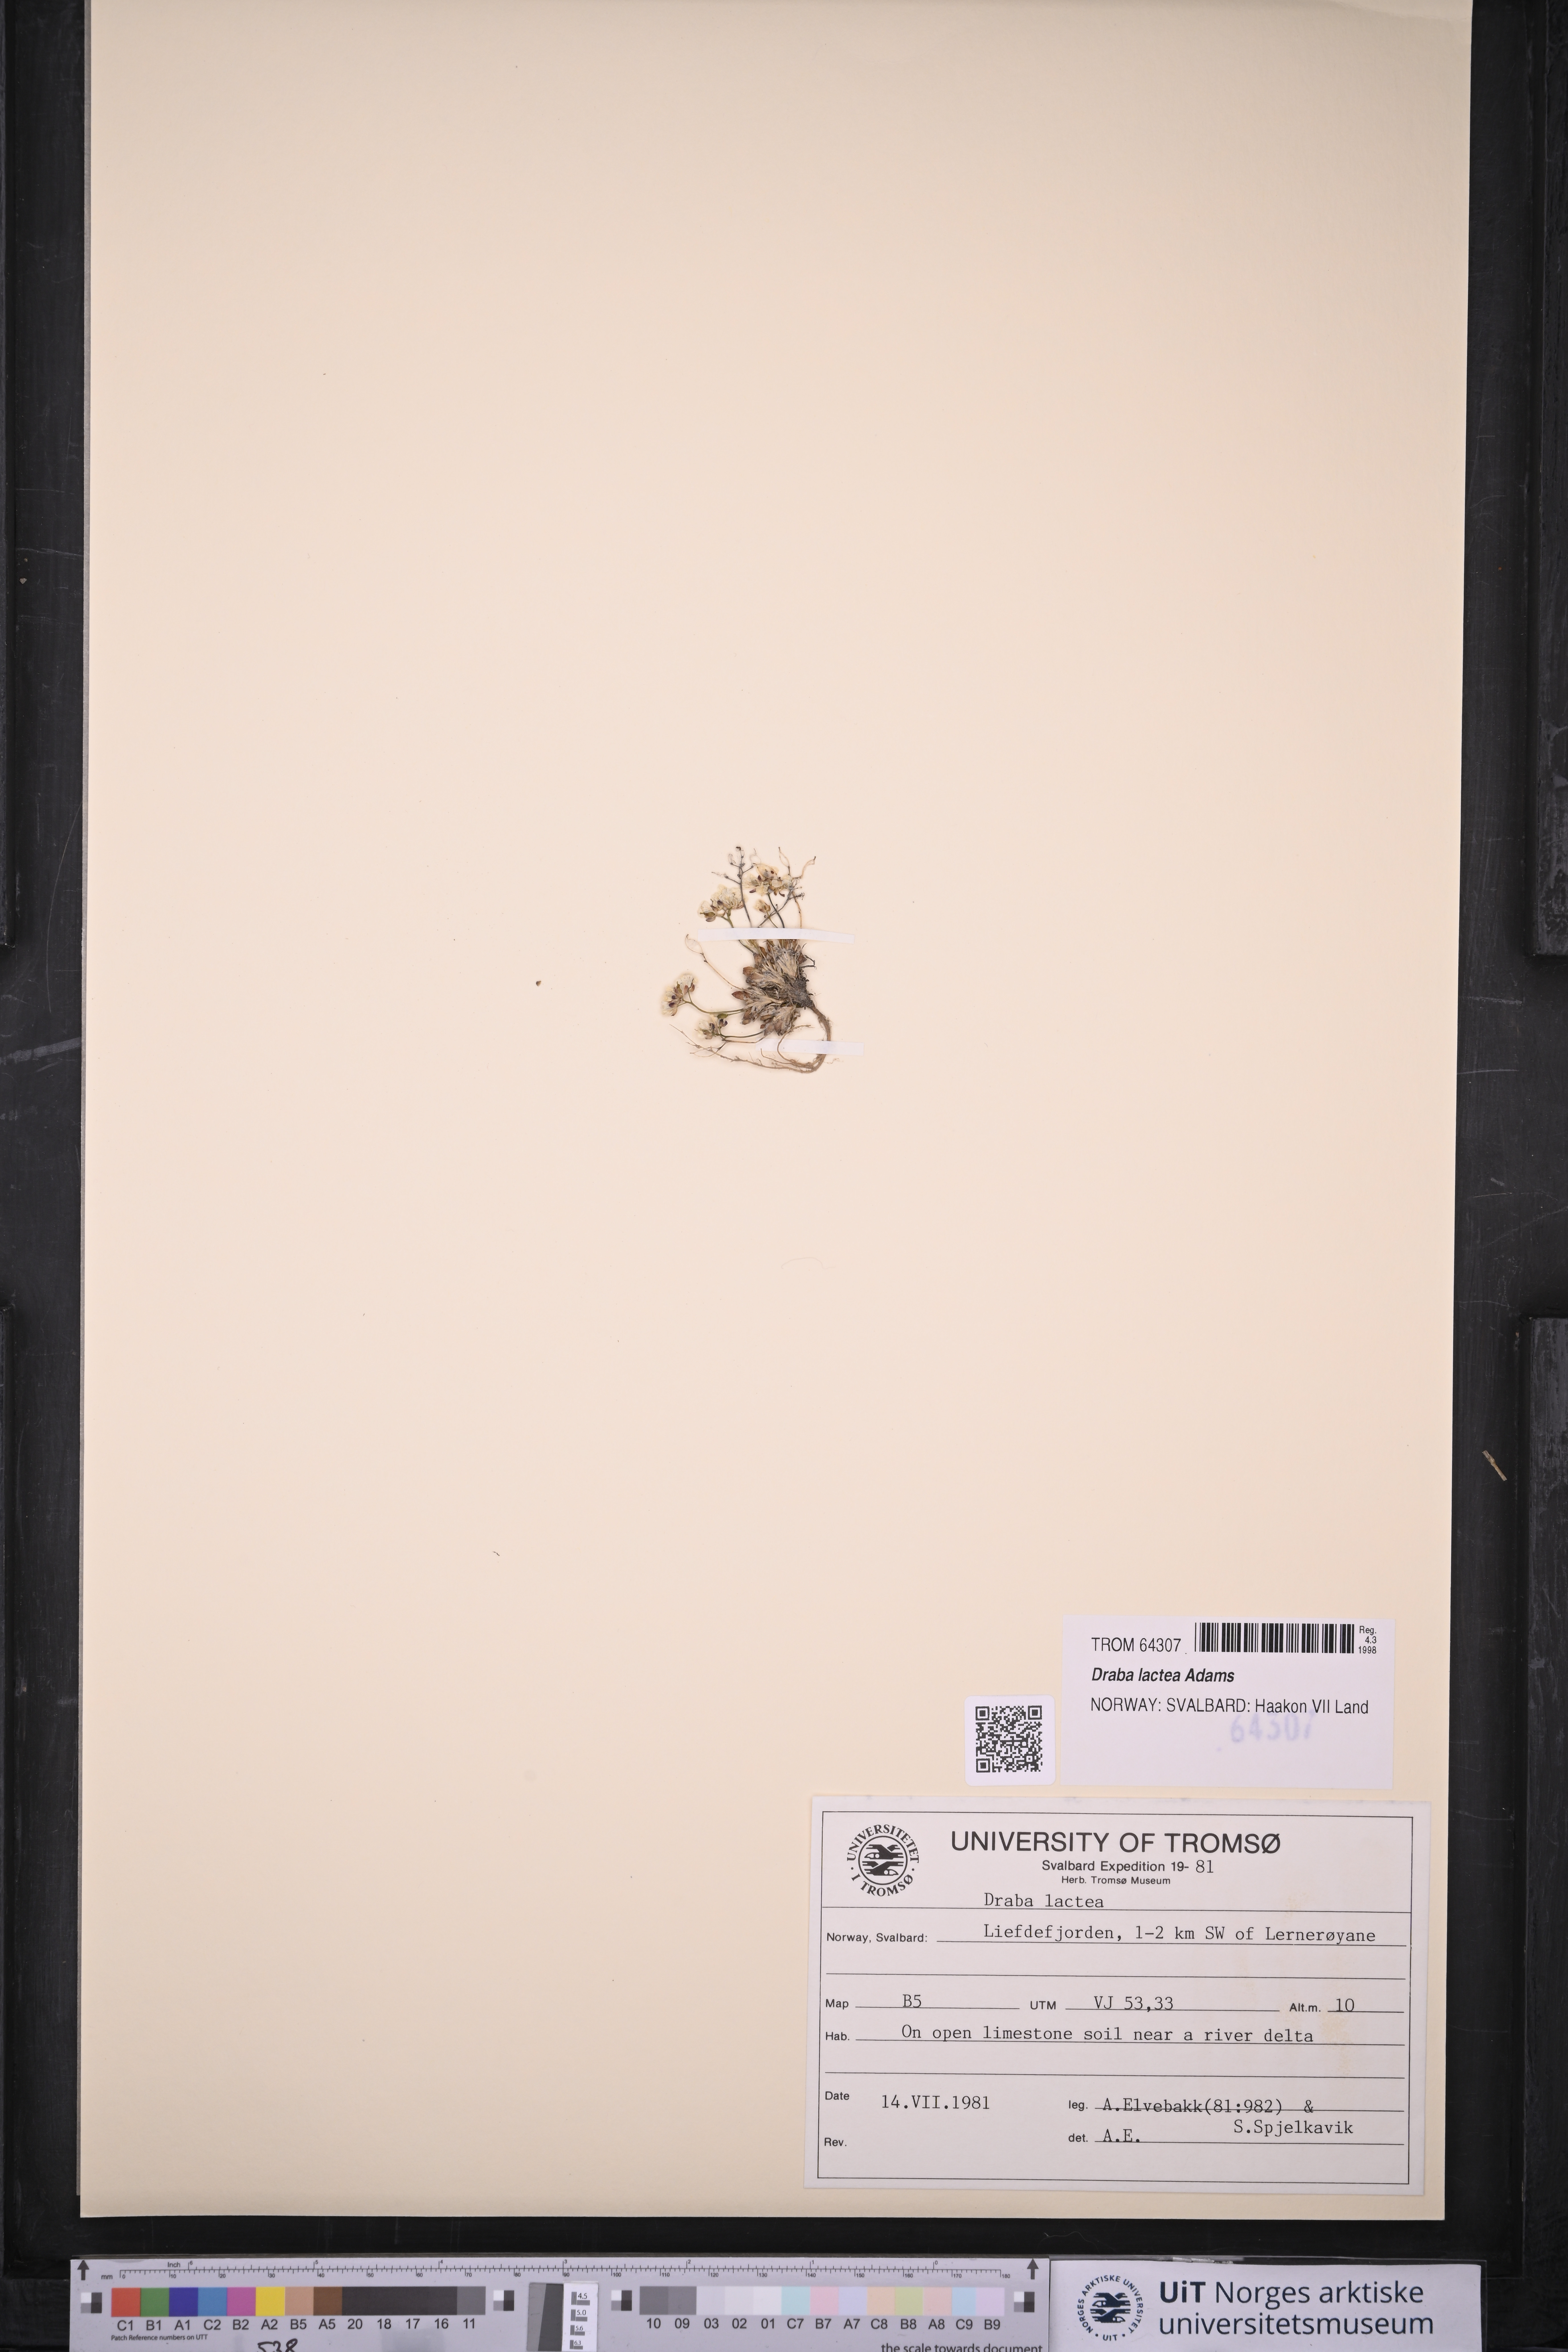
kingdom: Plantae
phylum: Tracheophyta
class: Magnoliopsida
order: Brassicales
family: Brassicaceae
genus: Draba
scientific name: Draba lactea
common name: Milky draba
